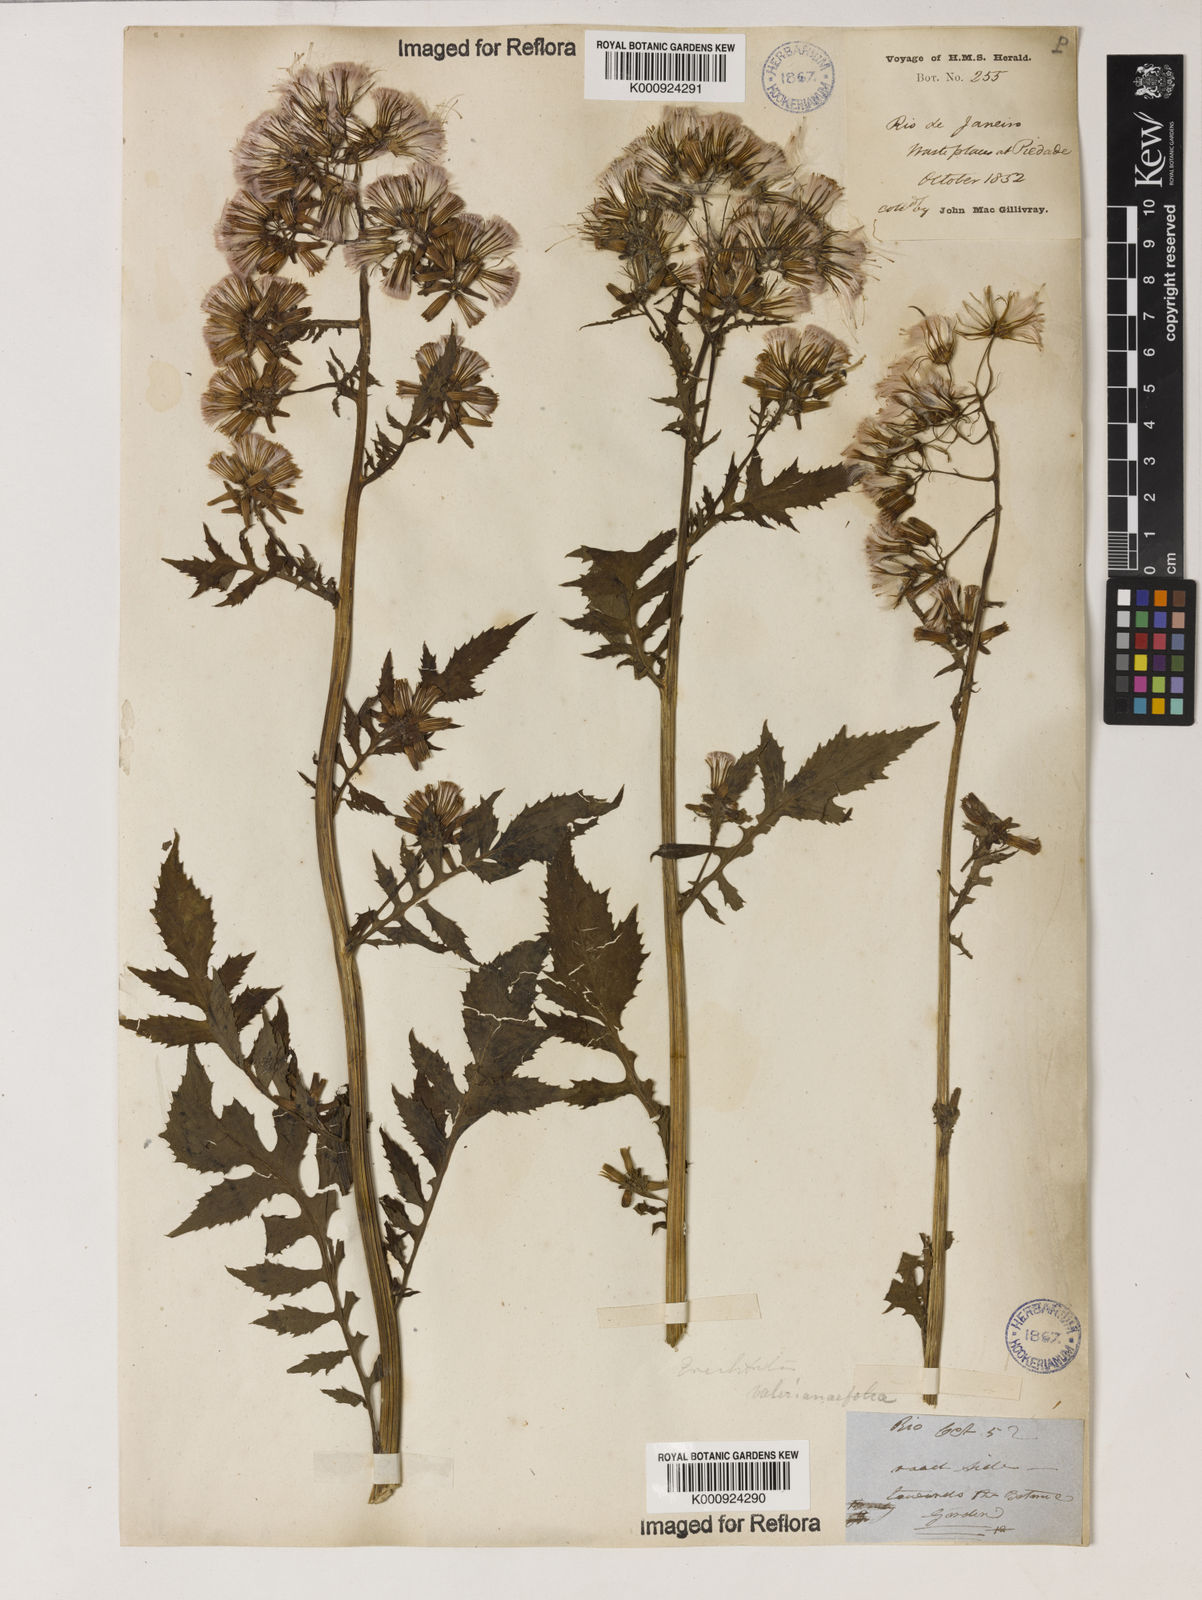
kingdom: Plantae
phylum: Tracheophyta
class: Magnoliopsida
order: Asterales
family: Asteraceae
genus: Erechtites
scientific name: Erechtites valerianifolius
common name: Tropical burnweed
